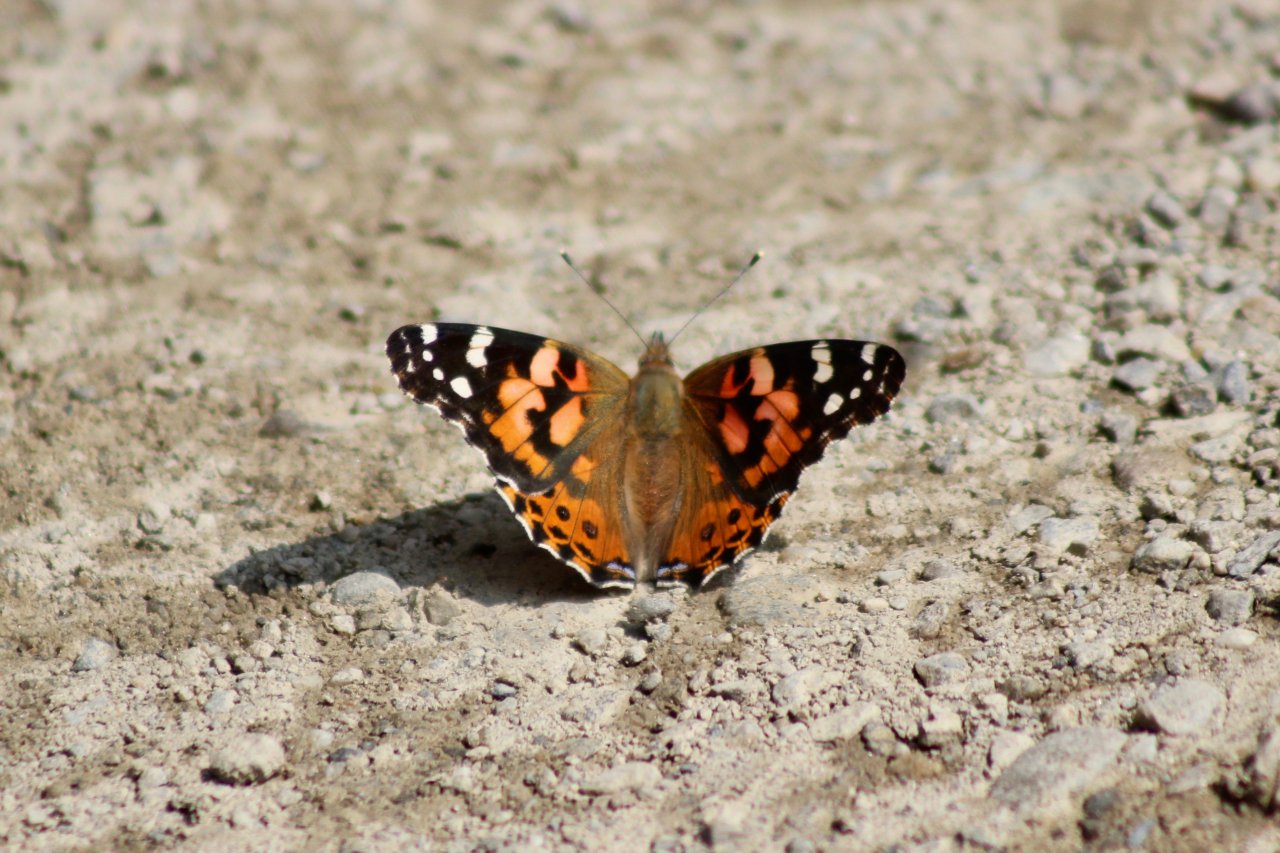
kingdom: Animalia
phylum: Arthropoda
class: Insecta
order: Lepidoptera
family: Nymphalidae
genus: Vanessa
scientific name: Vanessa cardui
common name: Painted Lady
